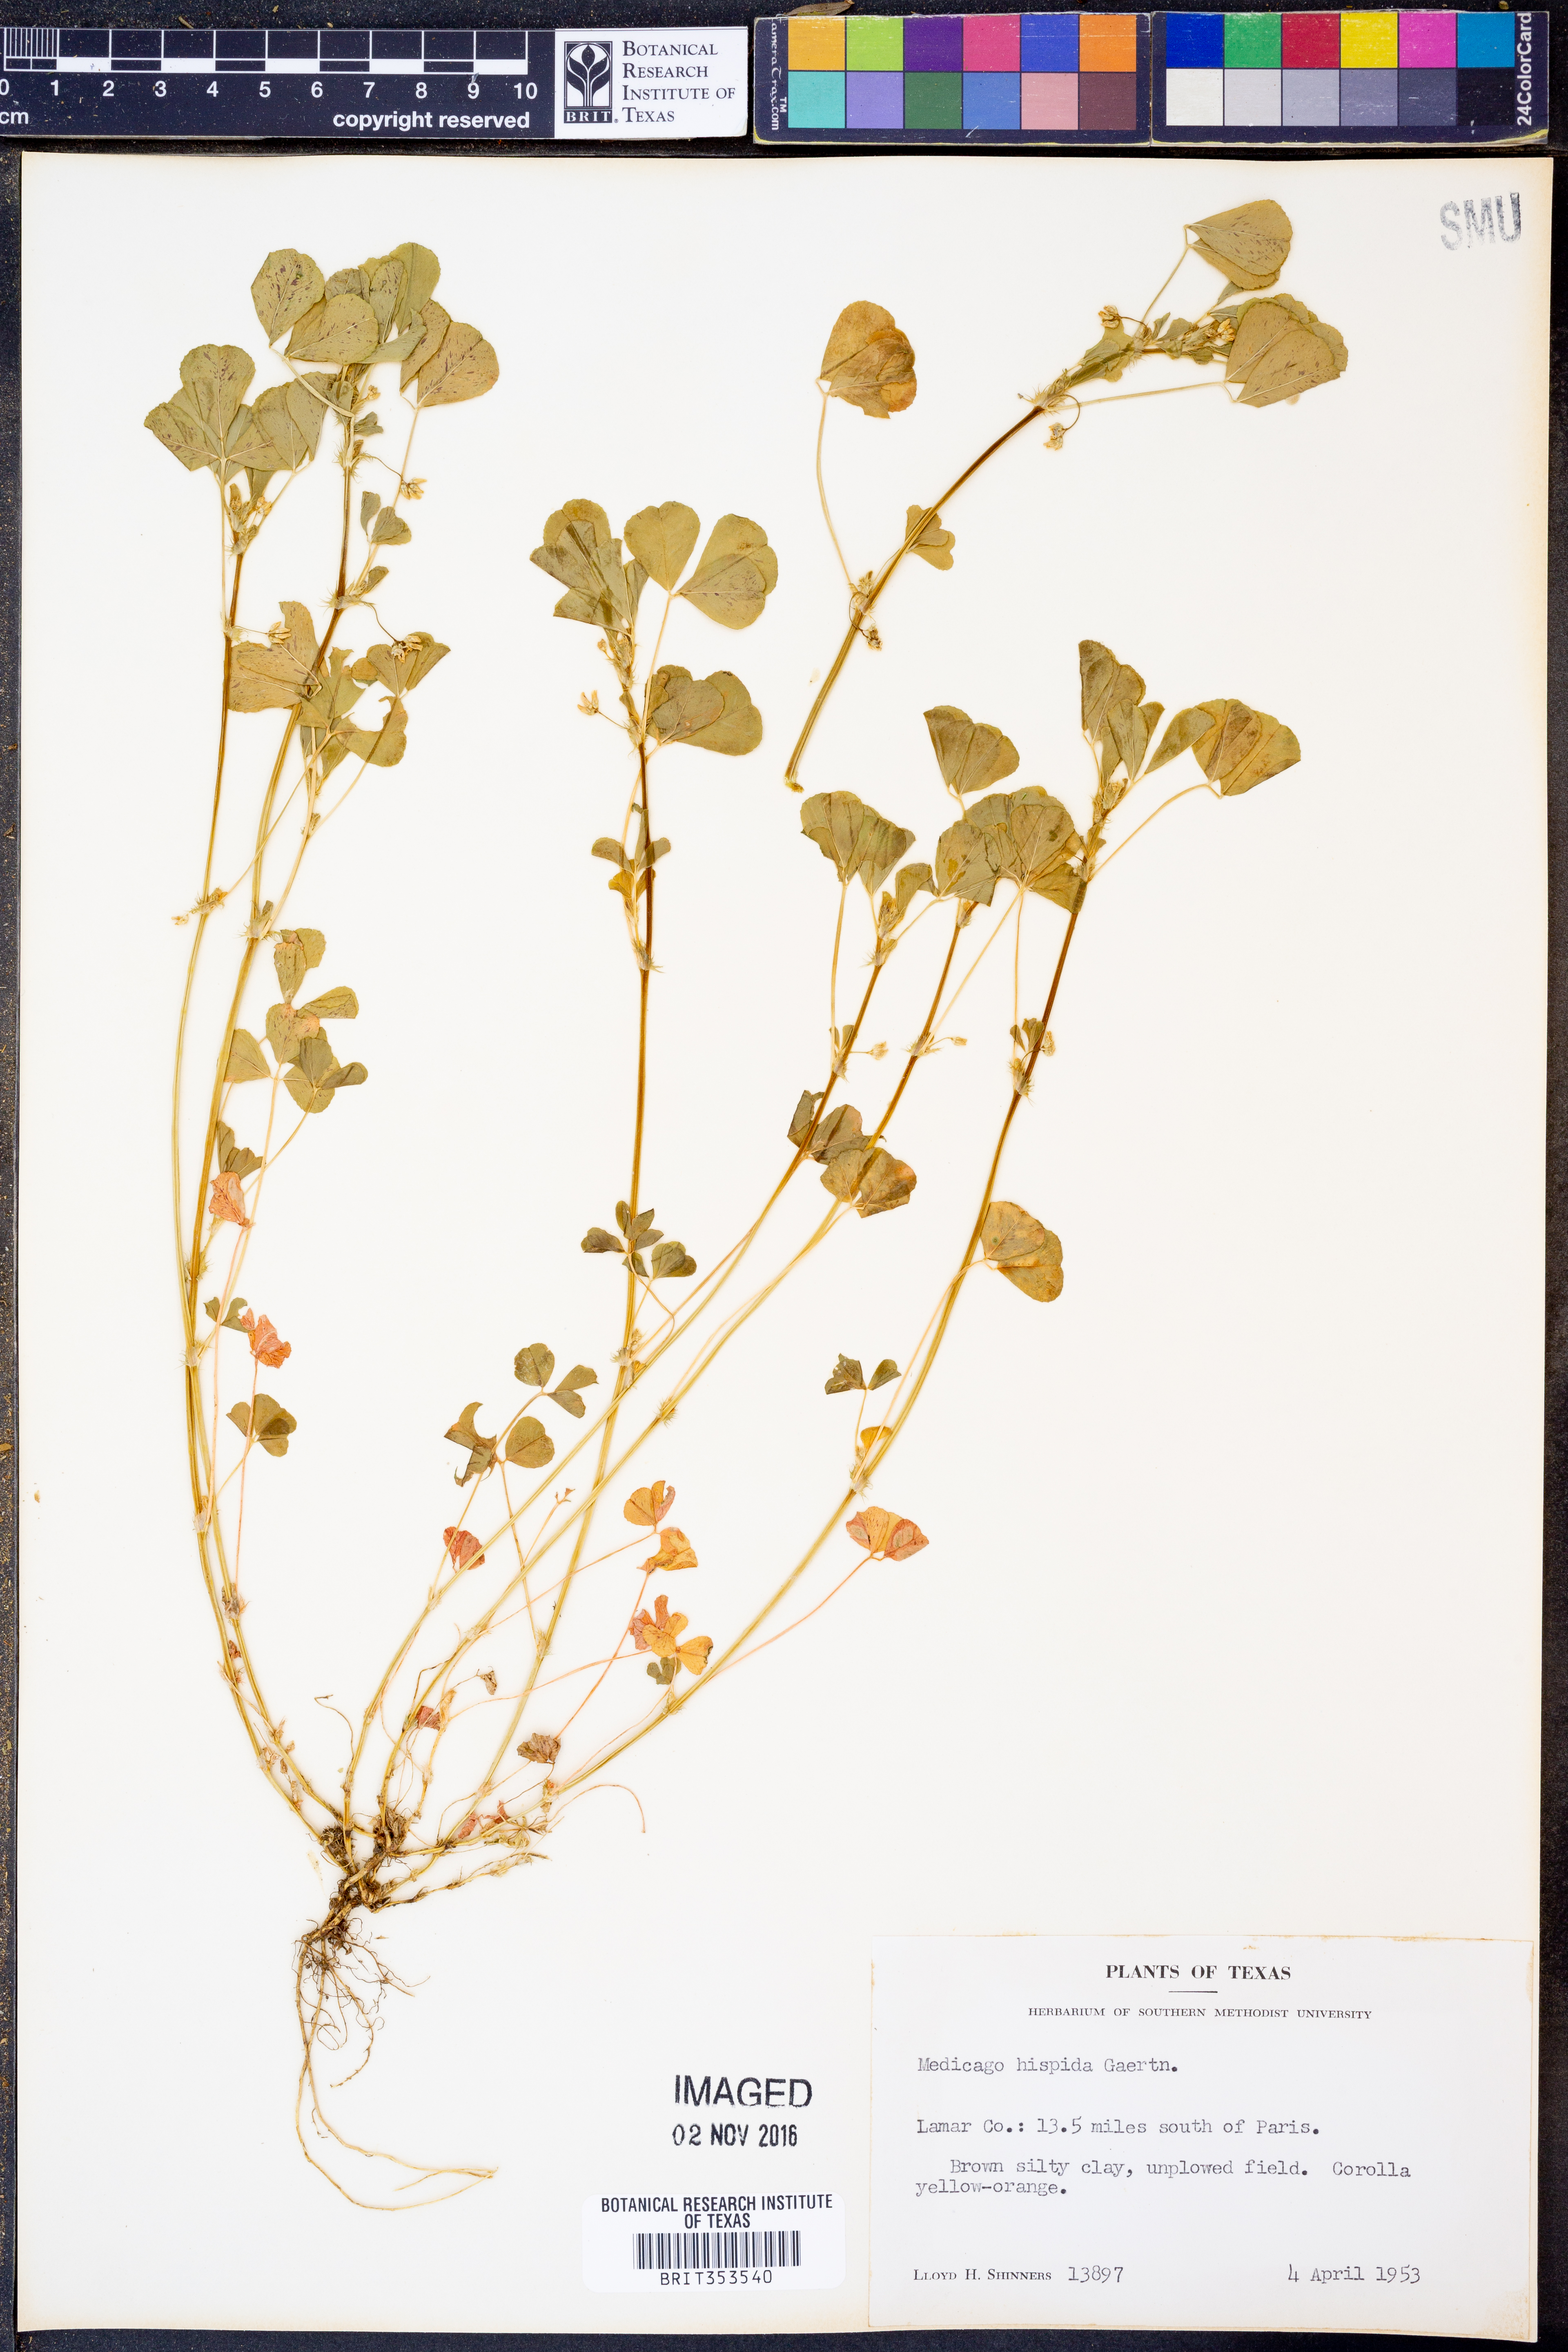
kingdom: Plantae
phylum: Tracheophyta
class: Magnoliopsida
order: Fabales
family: Fabaceae
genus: Medicago
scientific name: Medicago polymorpha
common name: Burclover
